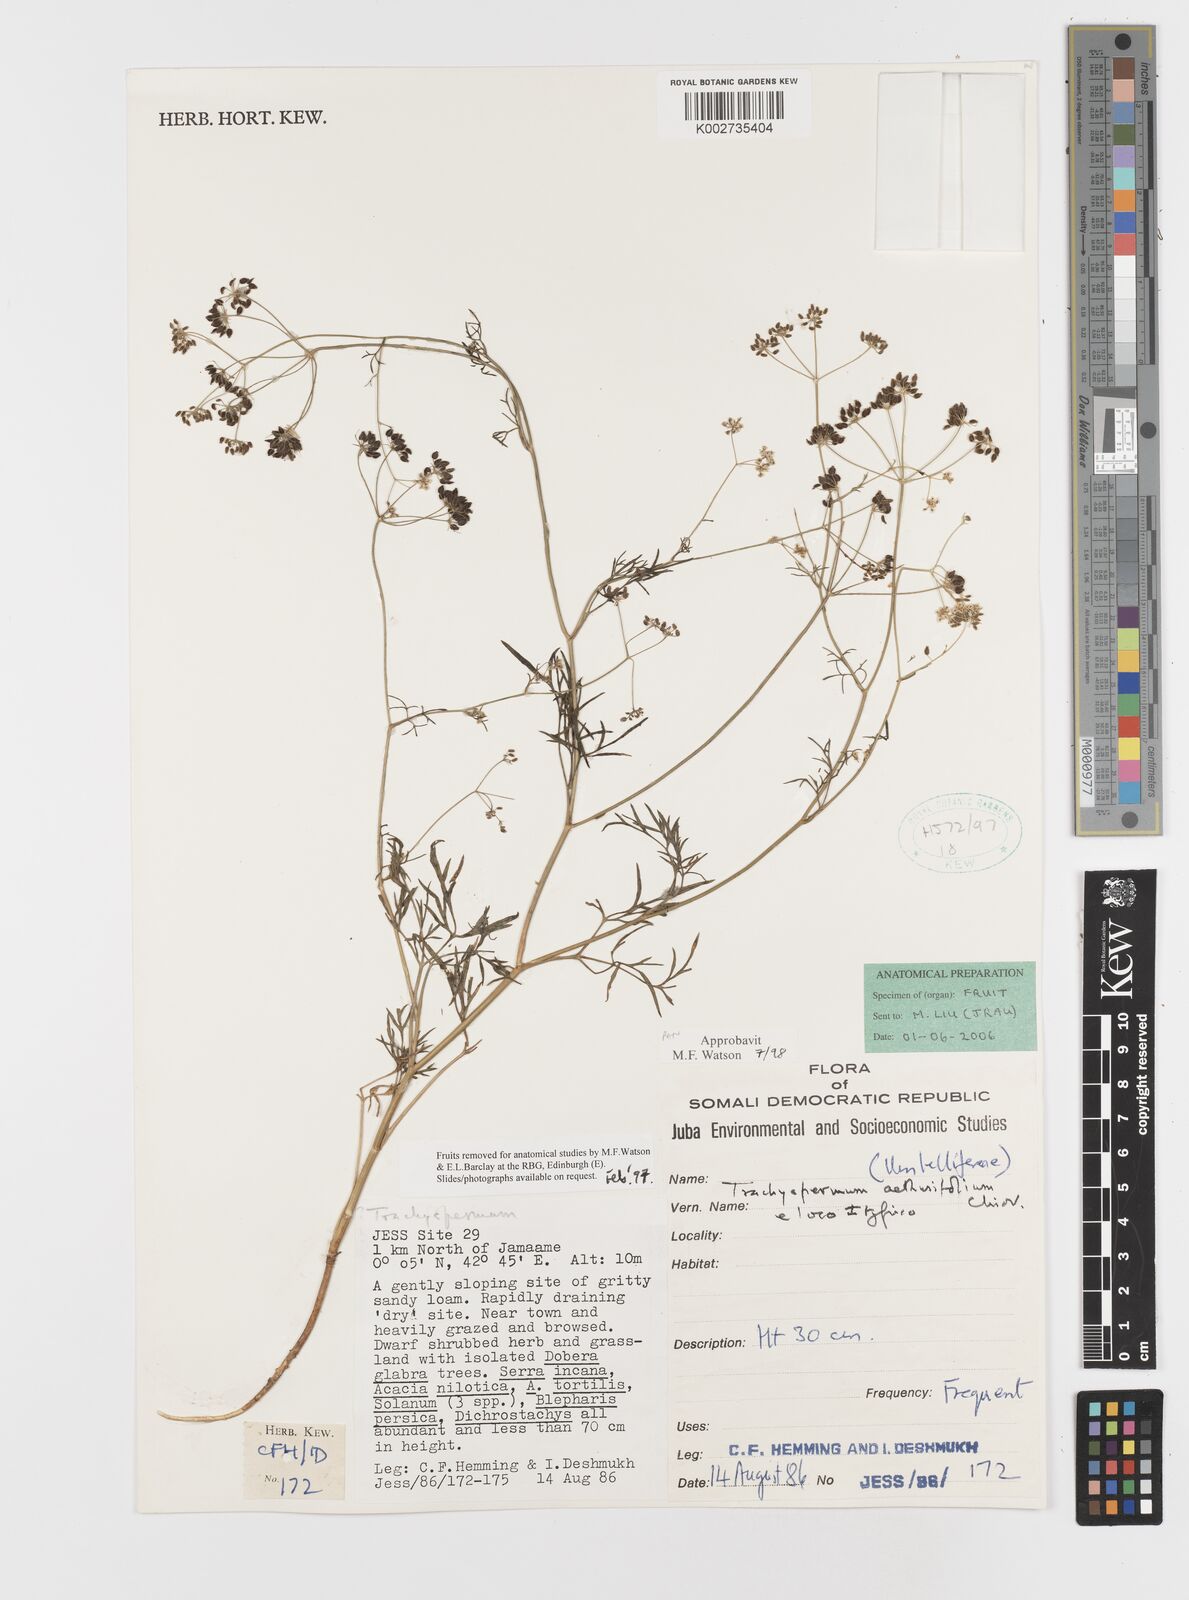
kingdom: Plantae
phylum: Tracheophyta
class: Magnoliopsida
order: Apiales
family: Apiaceae
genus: Trachyspermum
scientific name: Trachyspermum pimpinelloides
